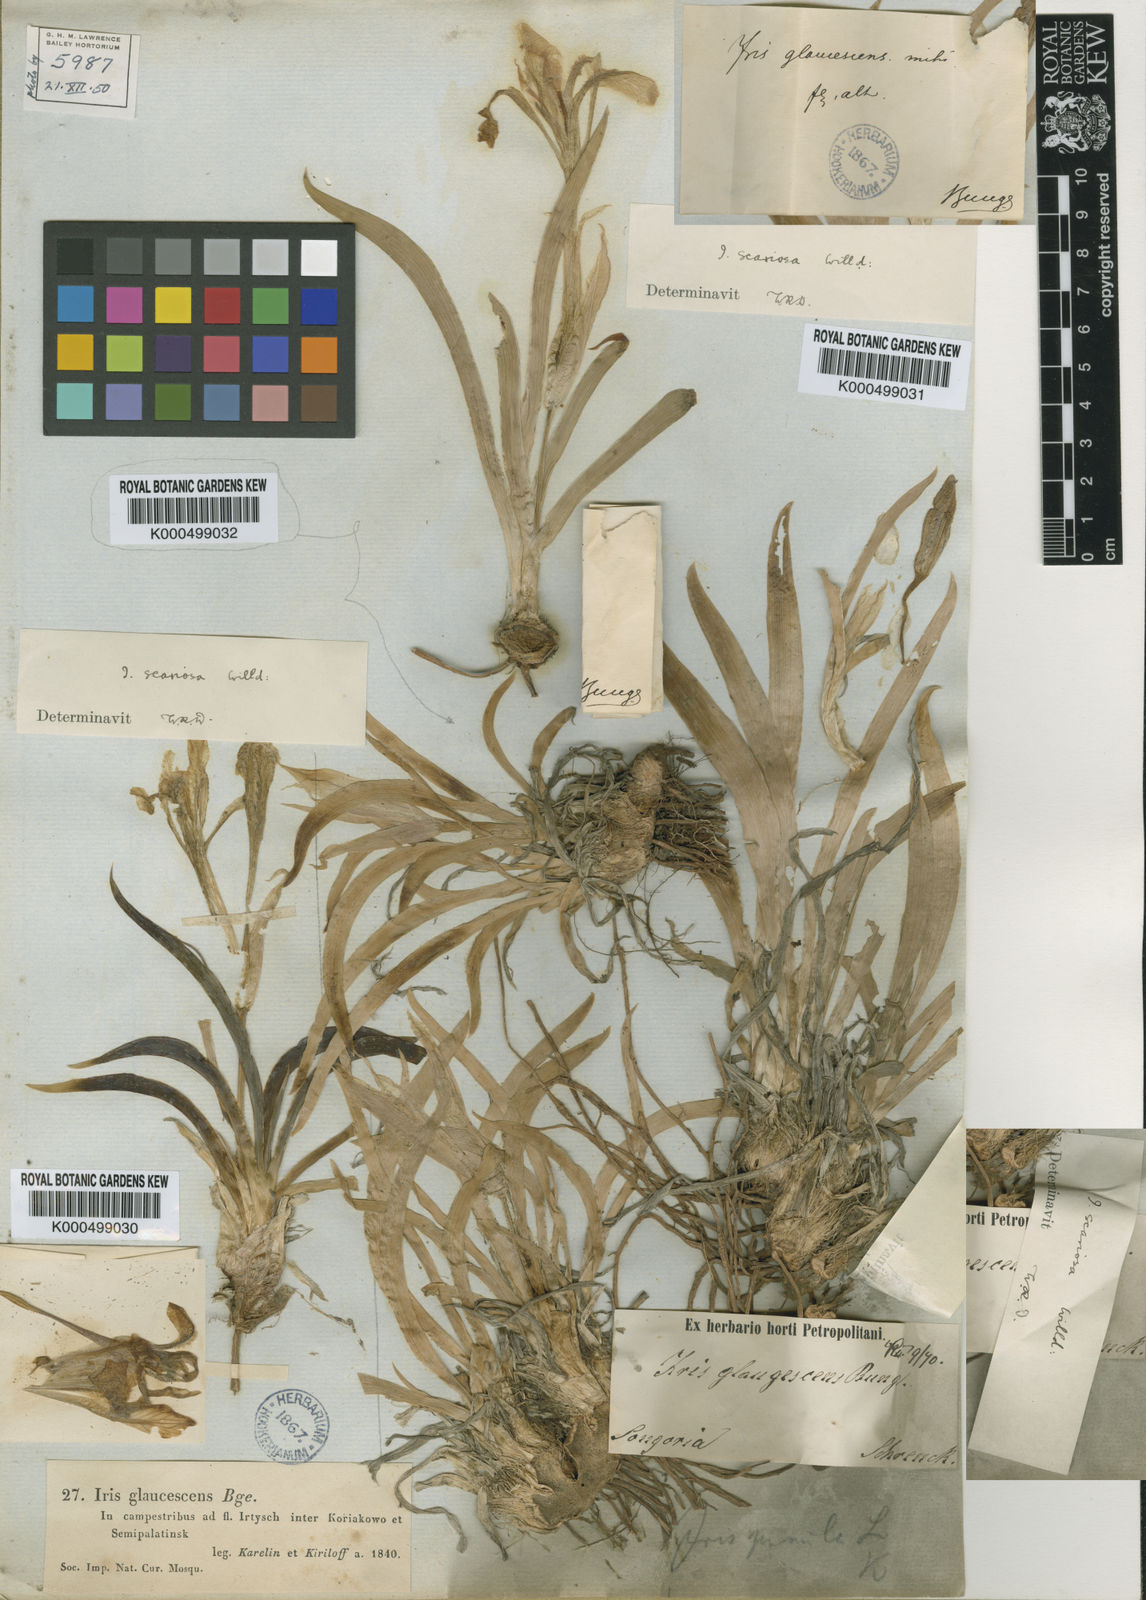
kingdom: Plantae
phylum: Tracheophyta
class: Liliopsida
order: Asparagales
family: Iridaceae
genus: Iris
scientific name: Iris scariosa
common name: Membrane-bract iris
